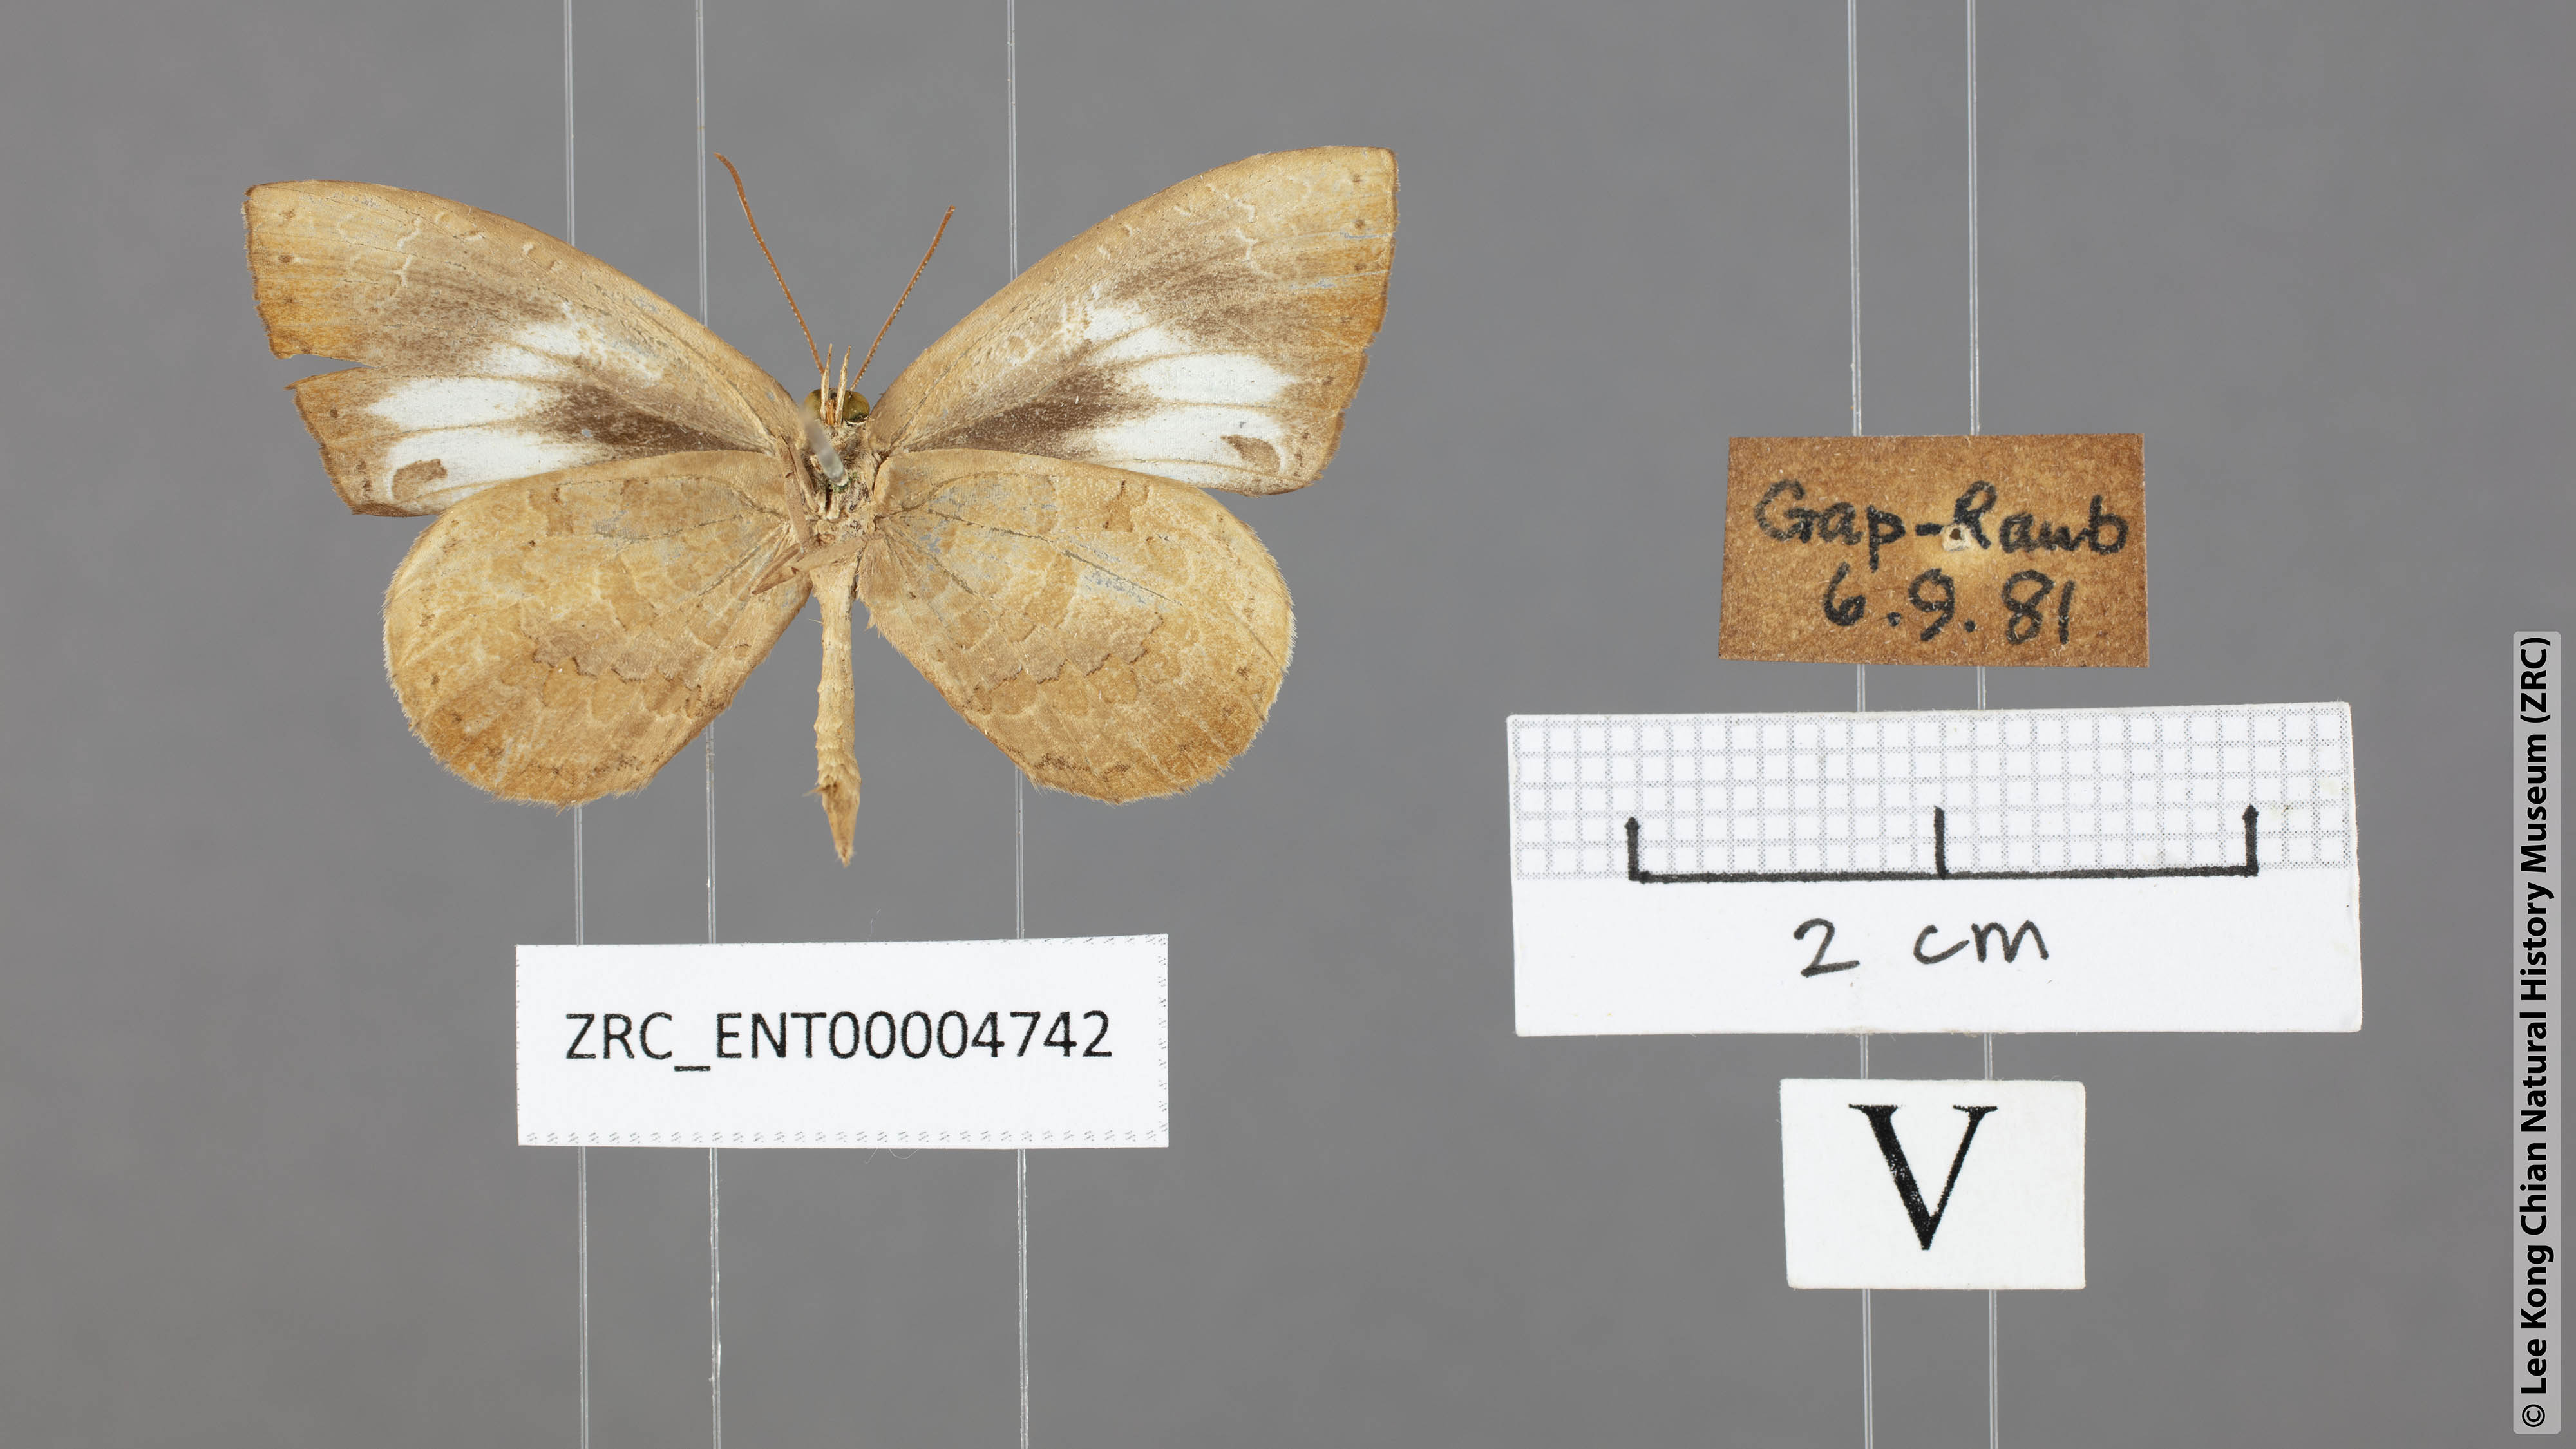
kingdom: Animalia
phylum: Arthropoda
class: Insecta
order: Lepidoptera
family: Lycaenidae
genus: Miletus
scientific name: Miletus symethus
